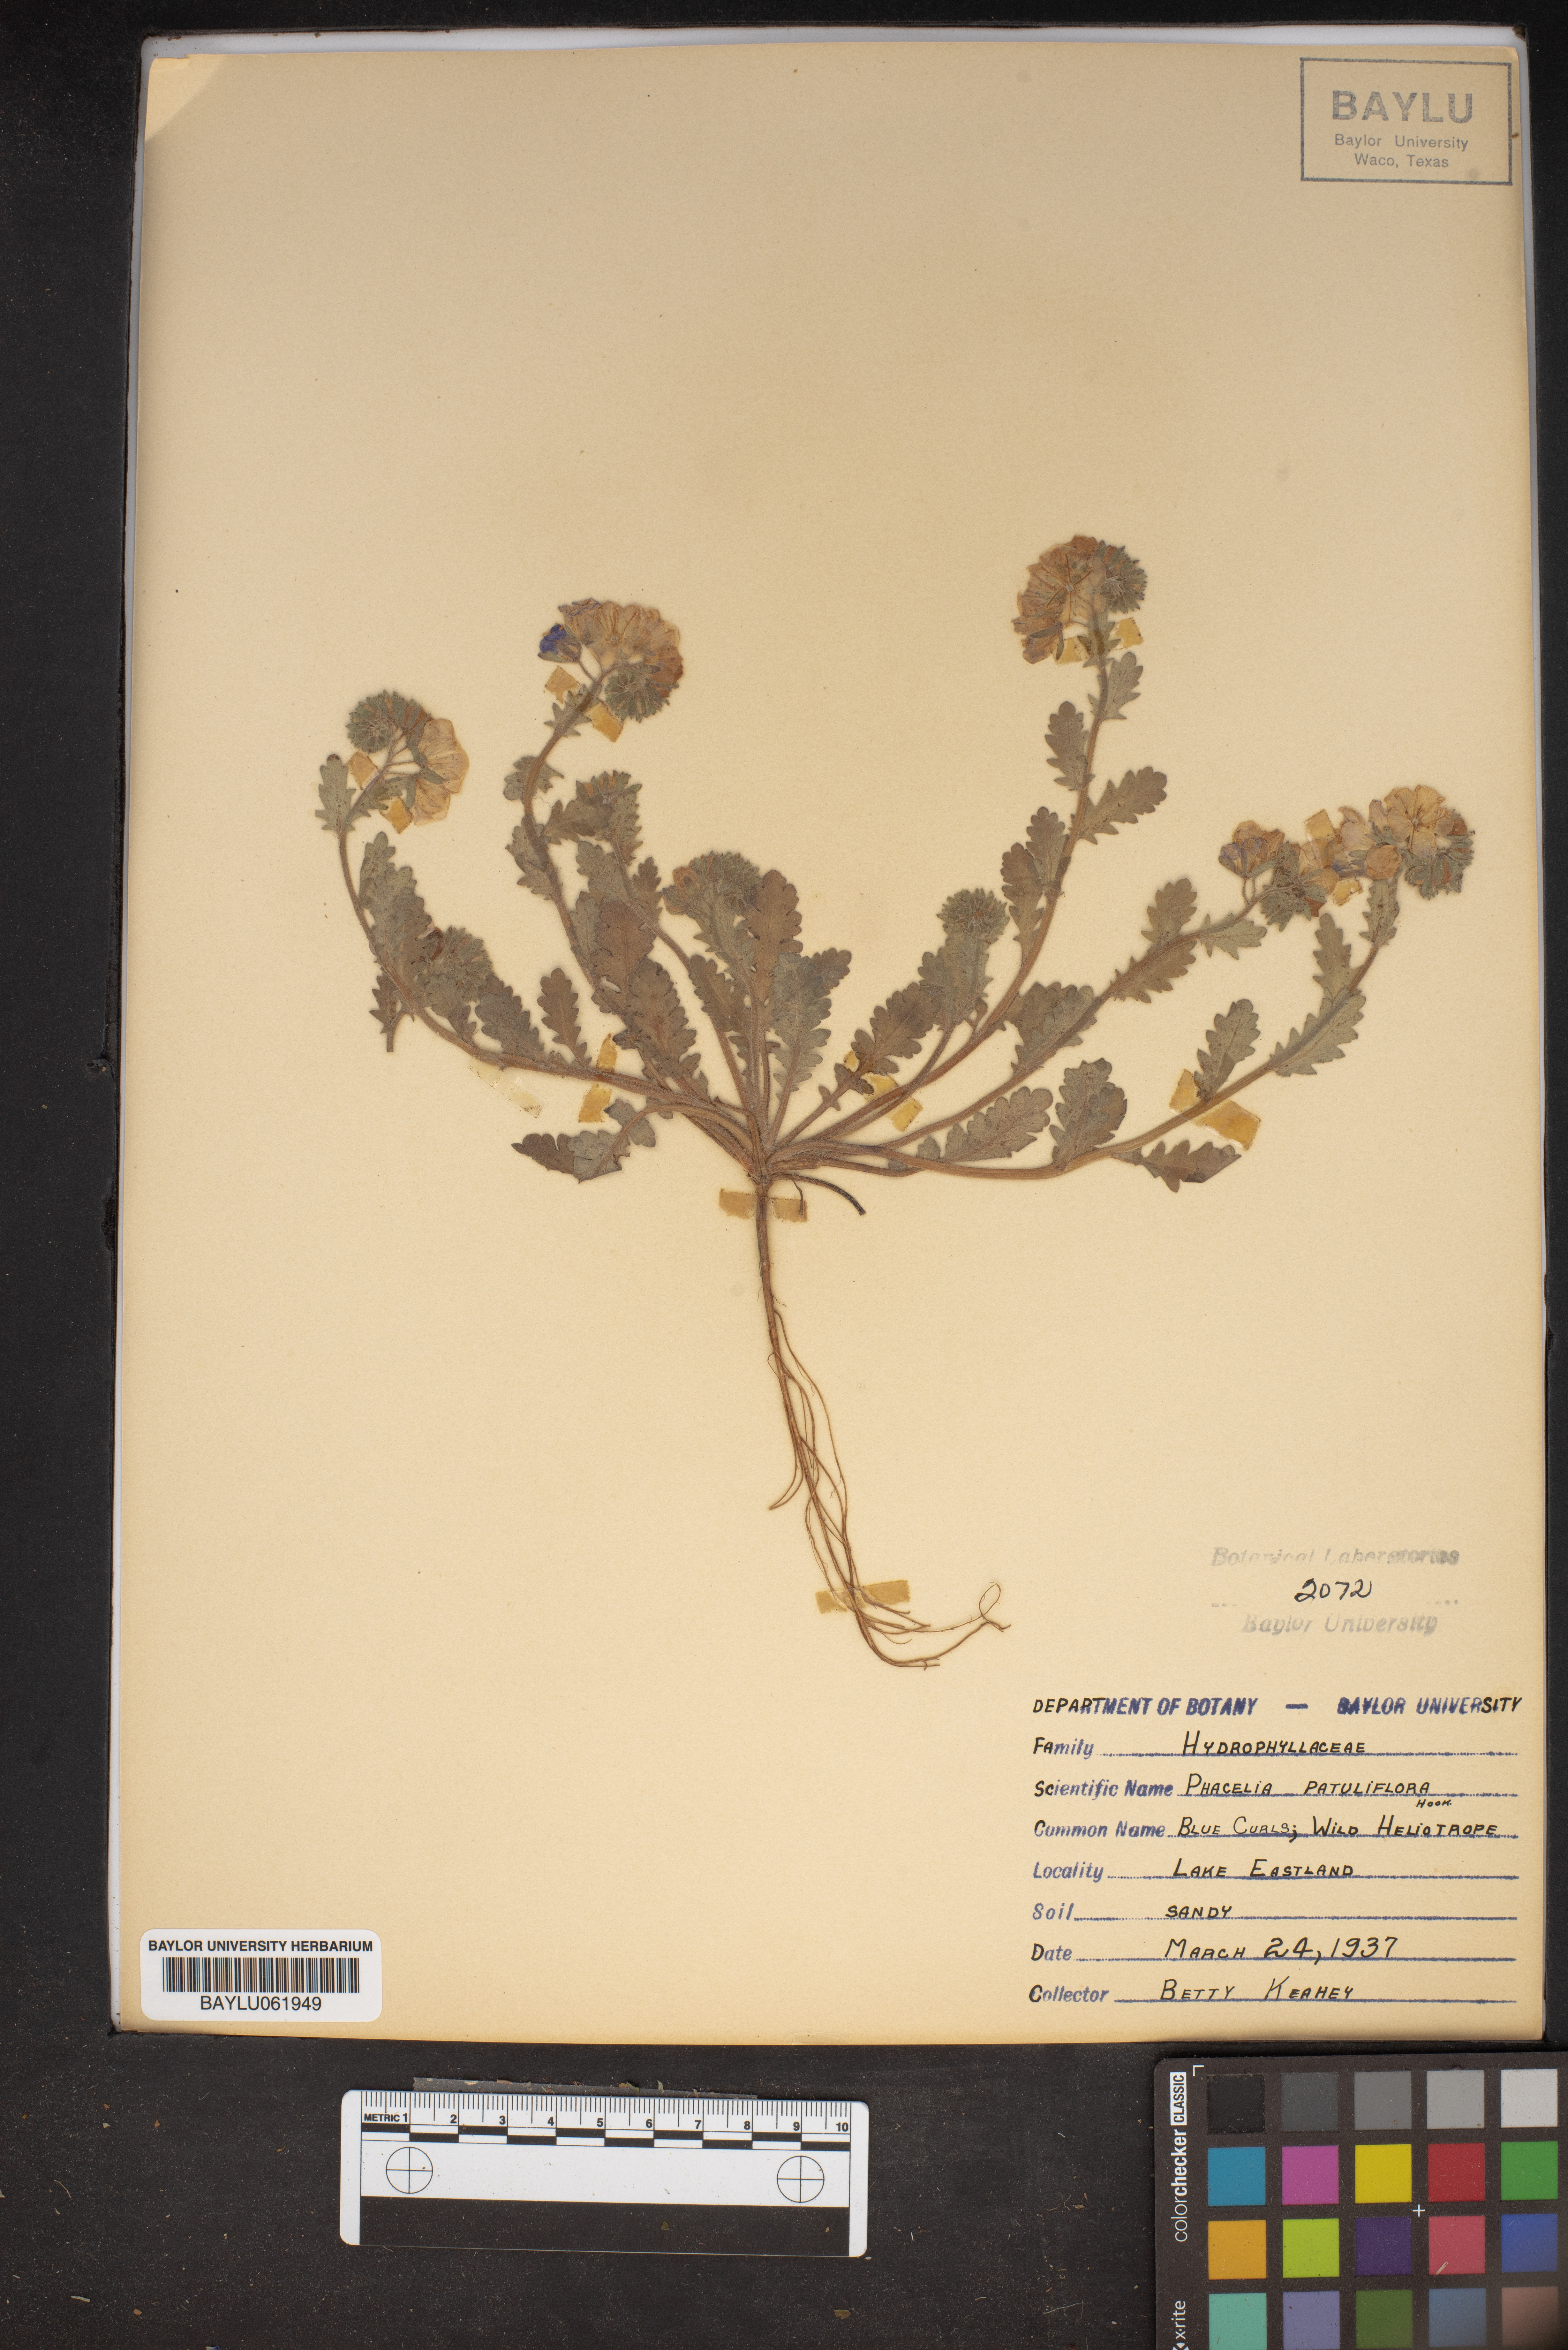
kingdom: Plantae
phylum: Tracheophyta
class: Magnoliopsida
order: Boraginales
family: Hydrophyllaceae
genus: Phacelia
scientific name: Phacelia patuliflora
